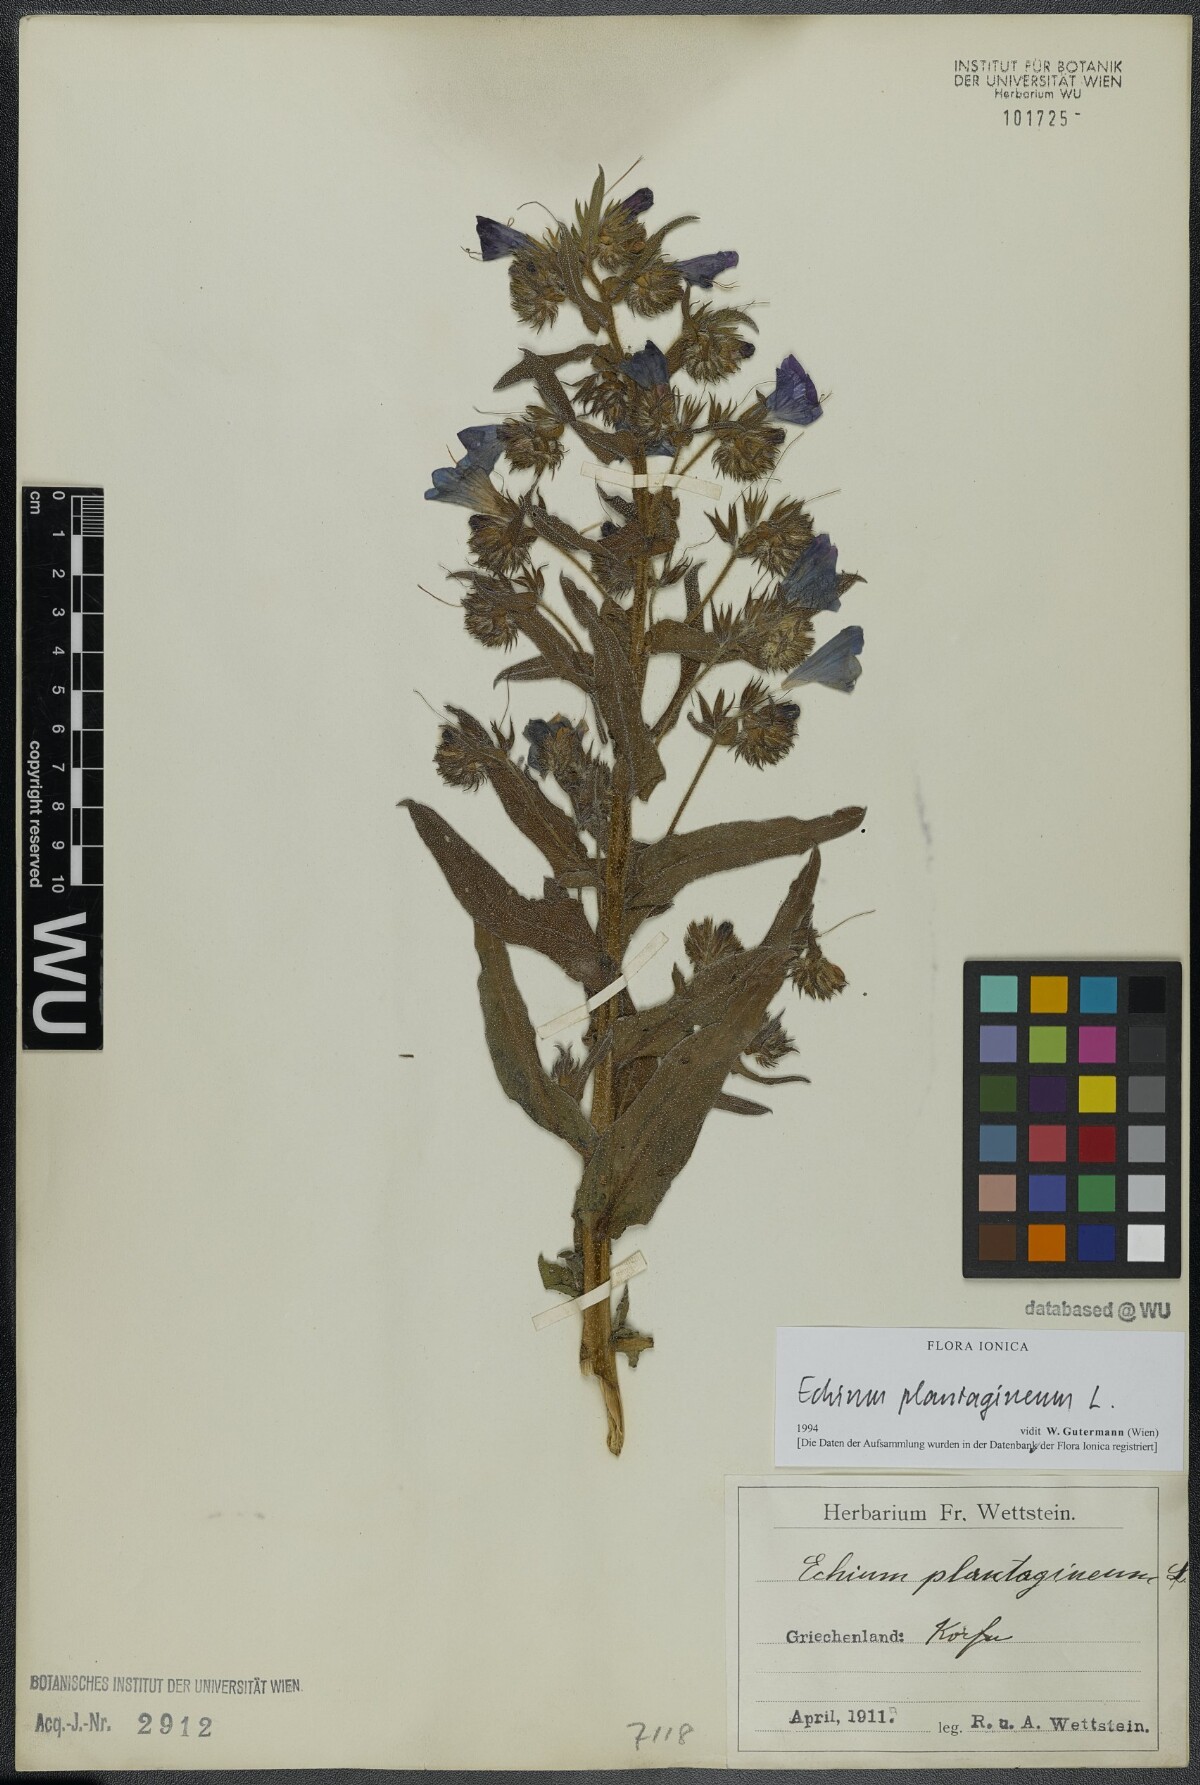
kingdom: Plantae
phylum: Tracheophyta
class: Magnoliopsida
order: Boraginales
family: Boraginaceae
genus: Echium
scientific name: Echium plantagineum
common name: Purple viper's-bugloss
